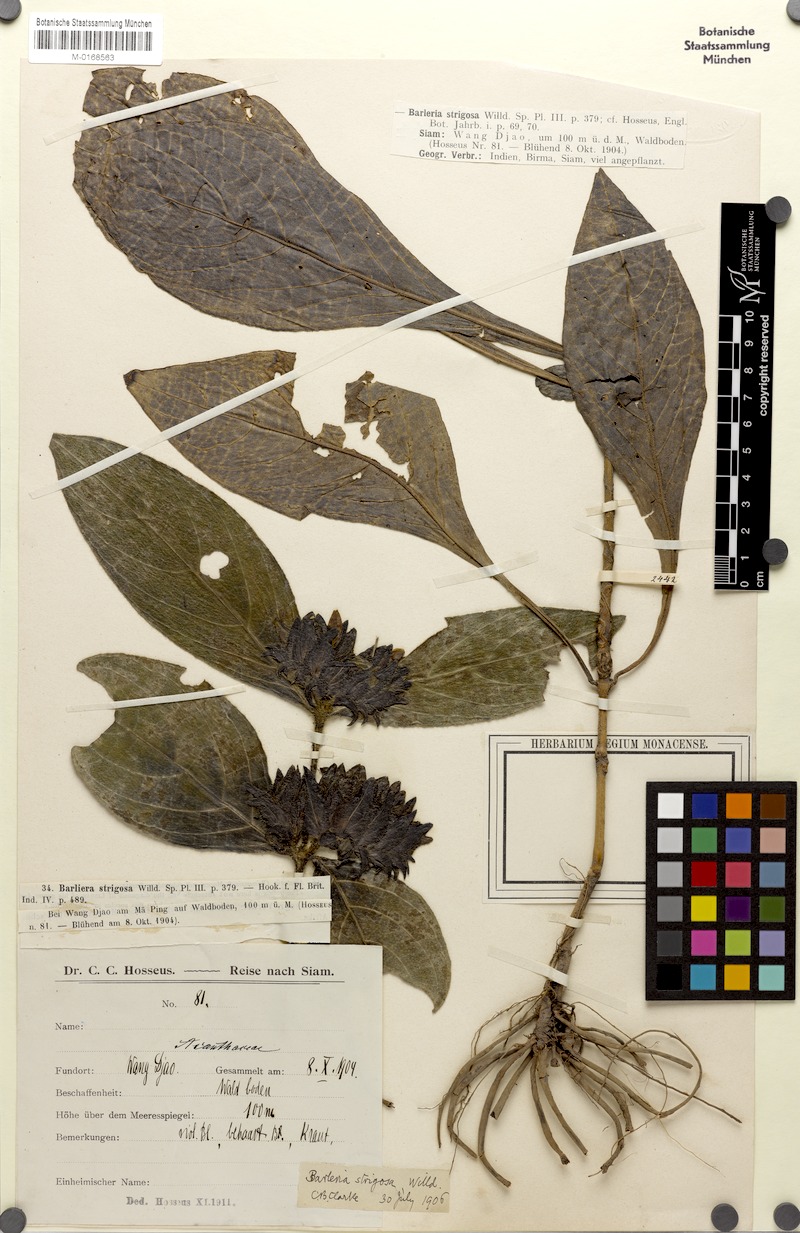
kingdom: Plantae
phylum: Tracheophyta
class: Magnoliopsida
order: Lamiales
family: Acanthaceae
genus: Barleria
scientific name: Barleria strigosa
